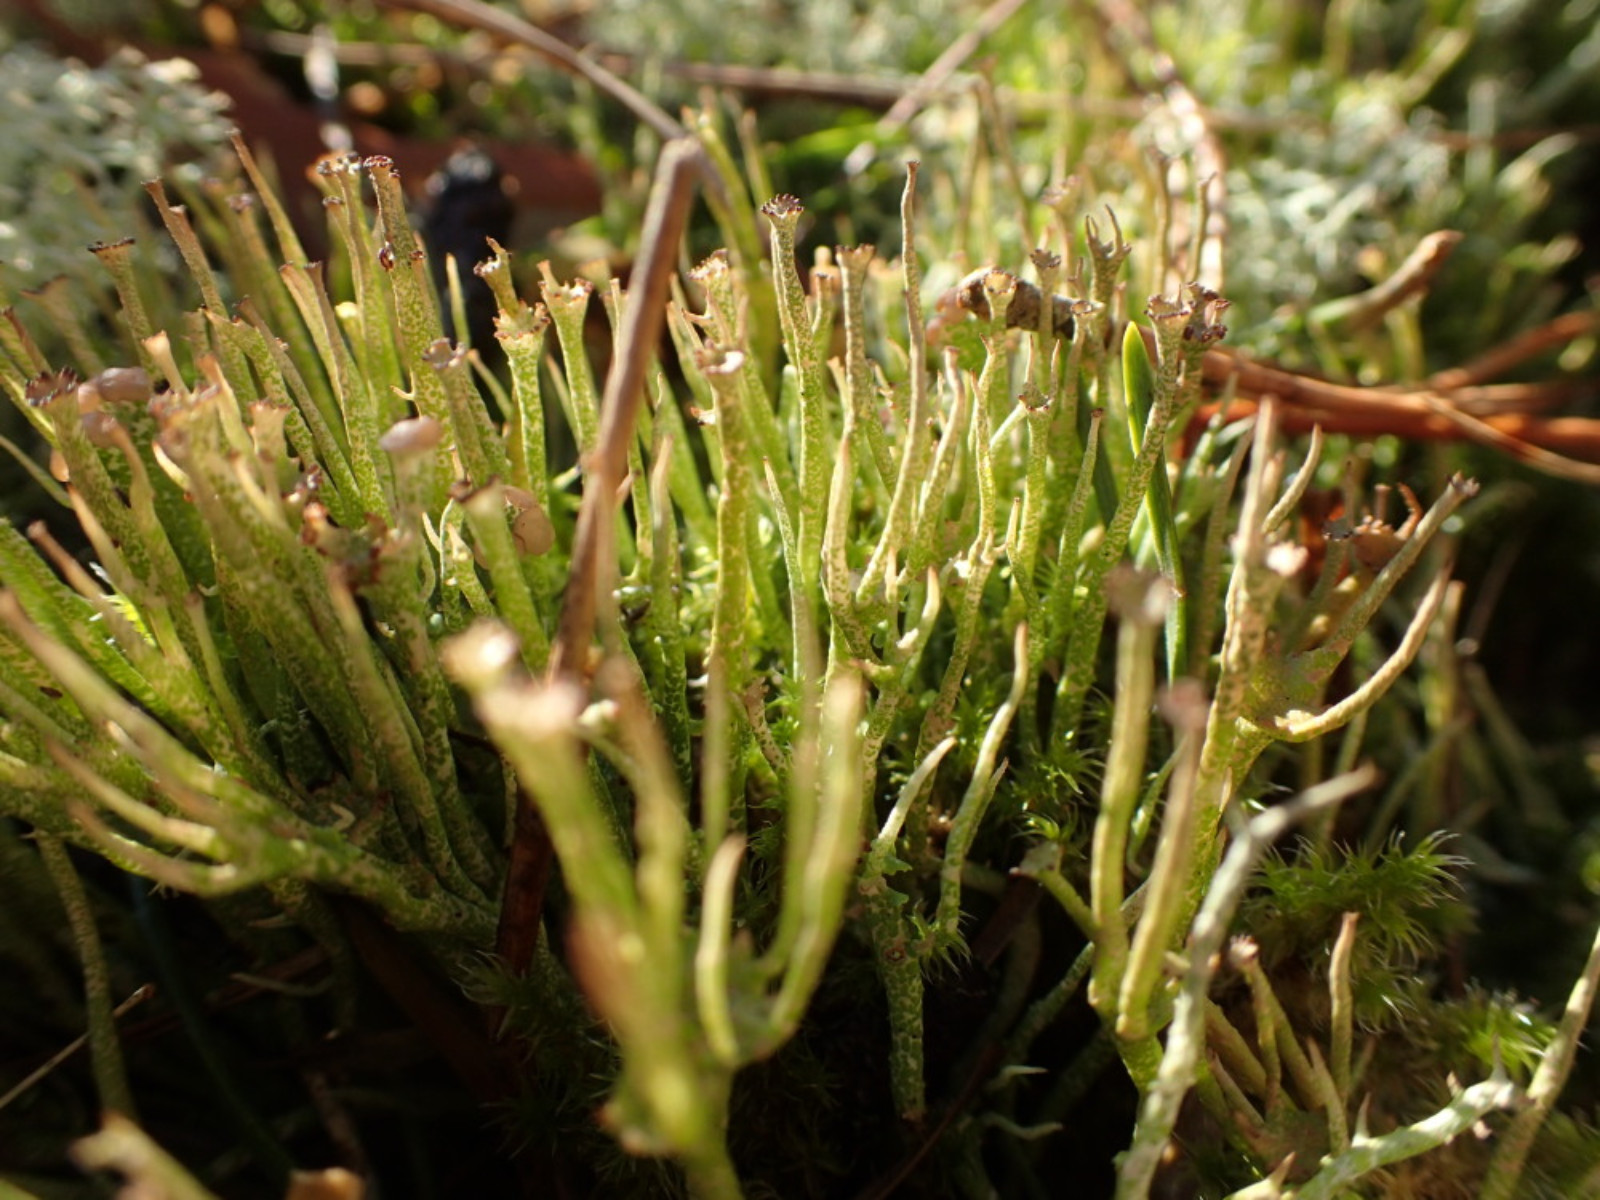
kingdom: Fungi
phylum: Ascomycota
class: Lecanoromycetes
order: Lecanorales
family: Cladoniaceae
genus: Cladonia
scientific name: Cladonia gracilis
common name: slank bægerlav
